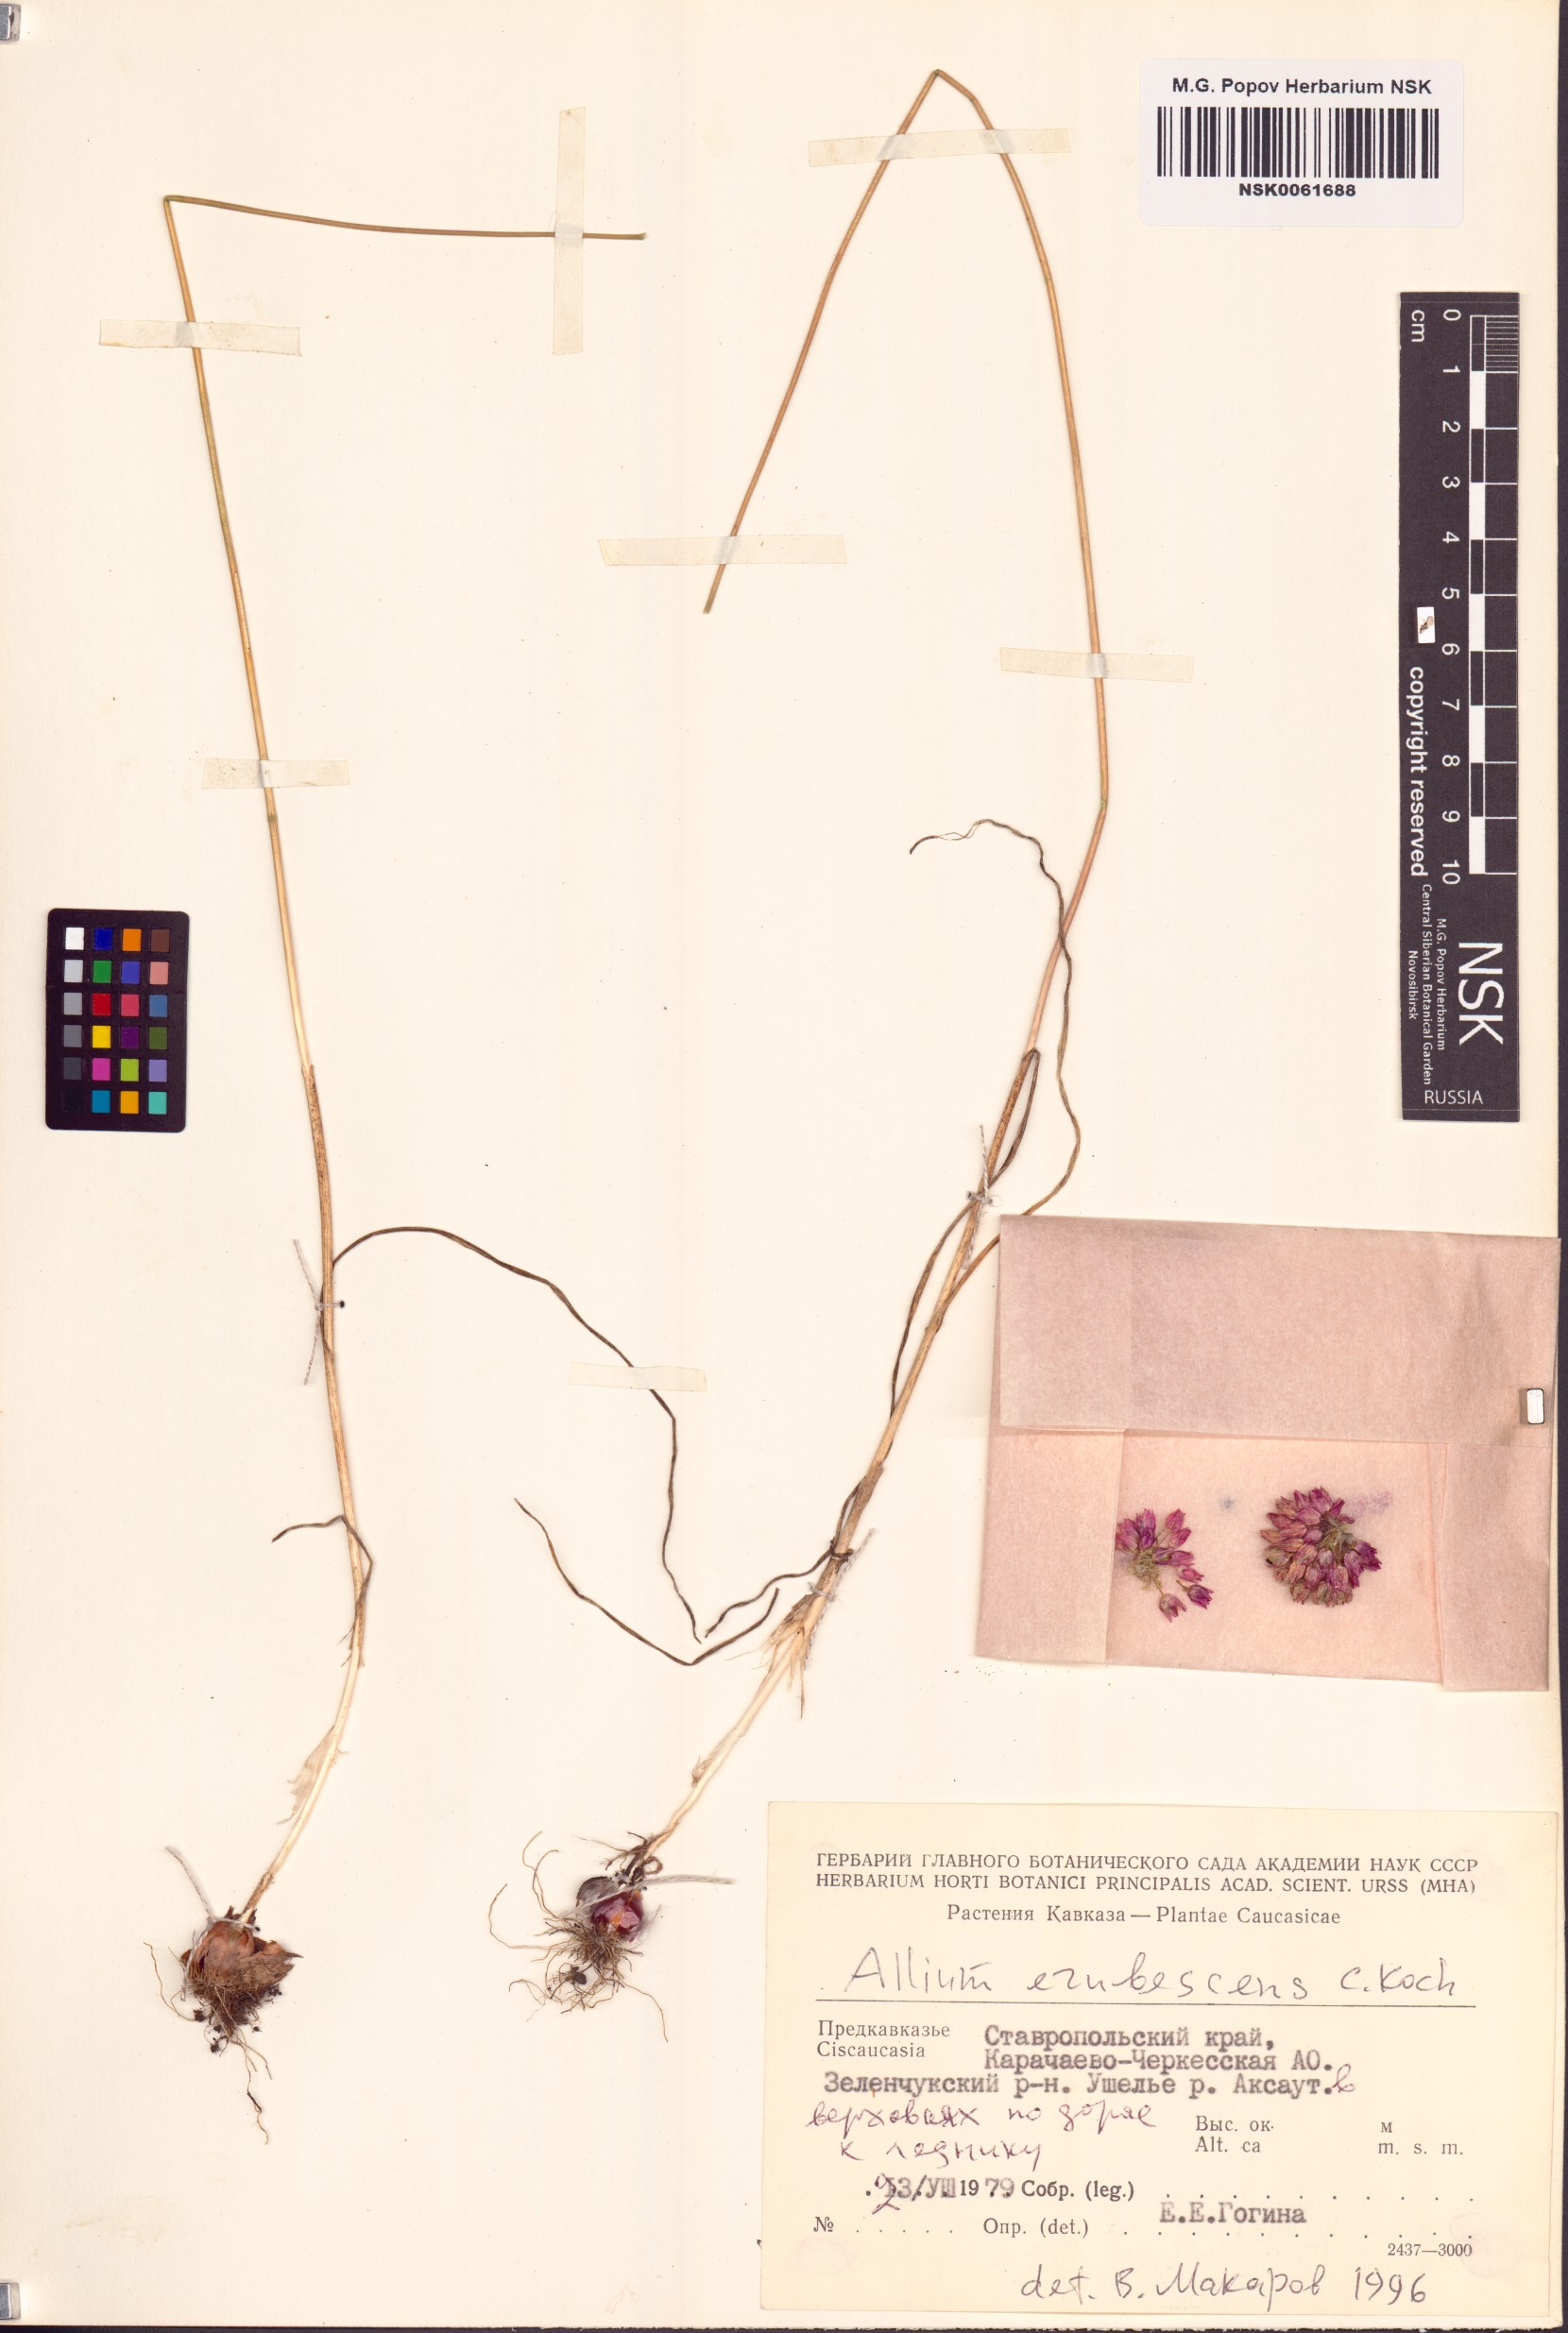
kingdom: Plantae
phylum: Tracheophyta
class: Liliopsida
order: Asparagales
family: Amaryllidaceae
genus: Allium
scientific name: Allium erubescens
